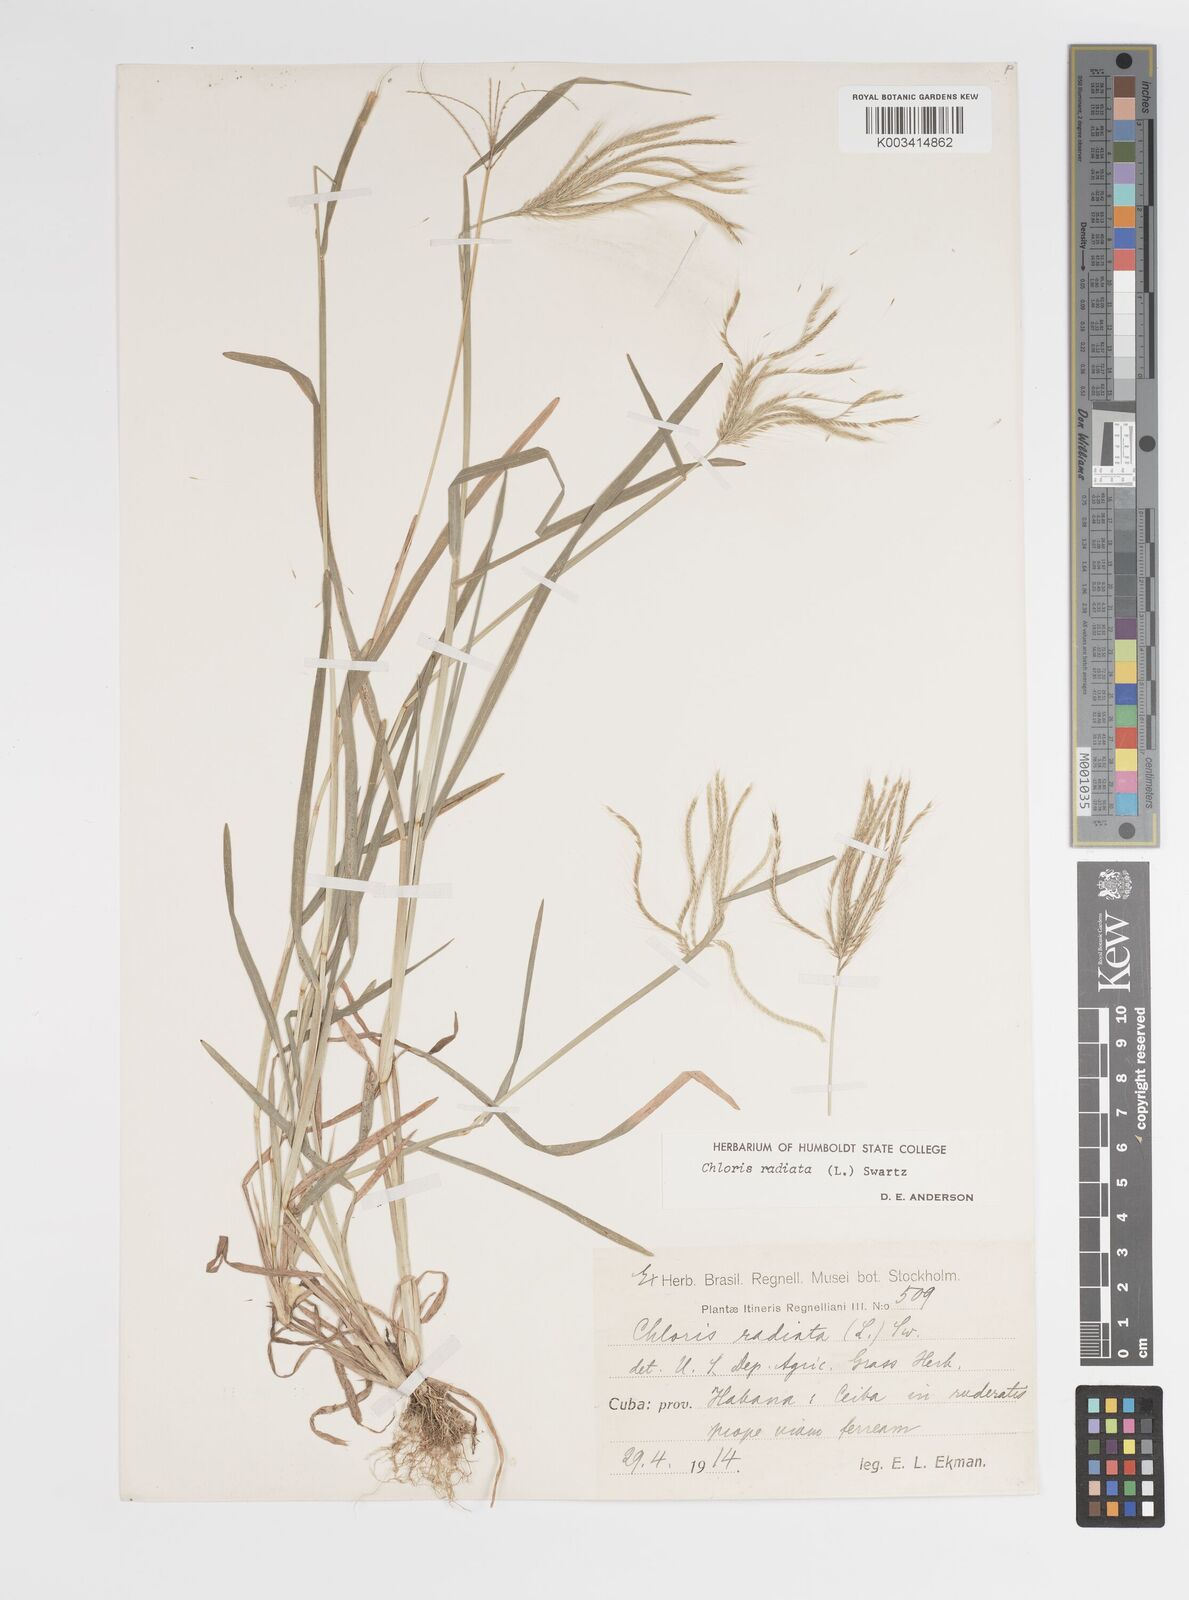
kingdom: Plantae
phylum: Tracheophyta
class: Liliopsida
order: Poales
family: Poaceae
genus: Chloris
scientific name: Chloris radiata
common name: Radiate fingergrass
